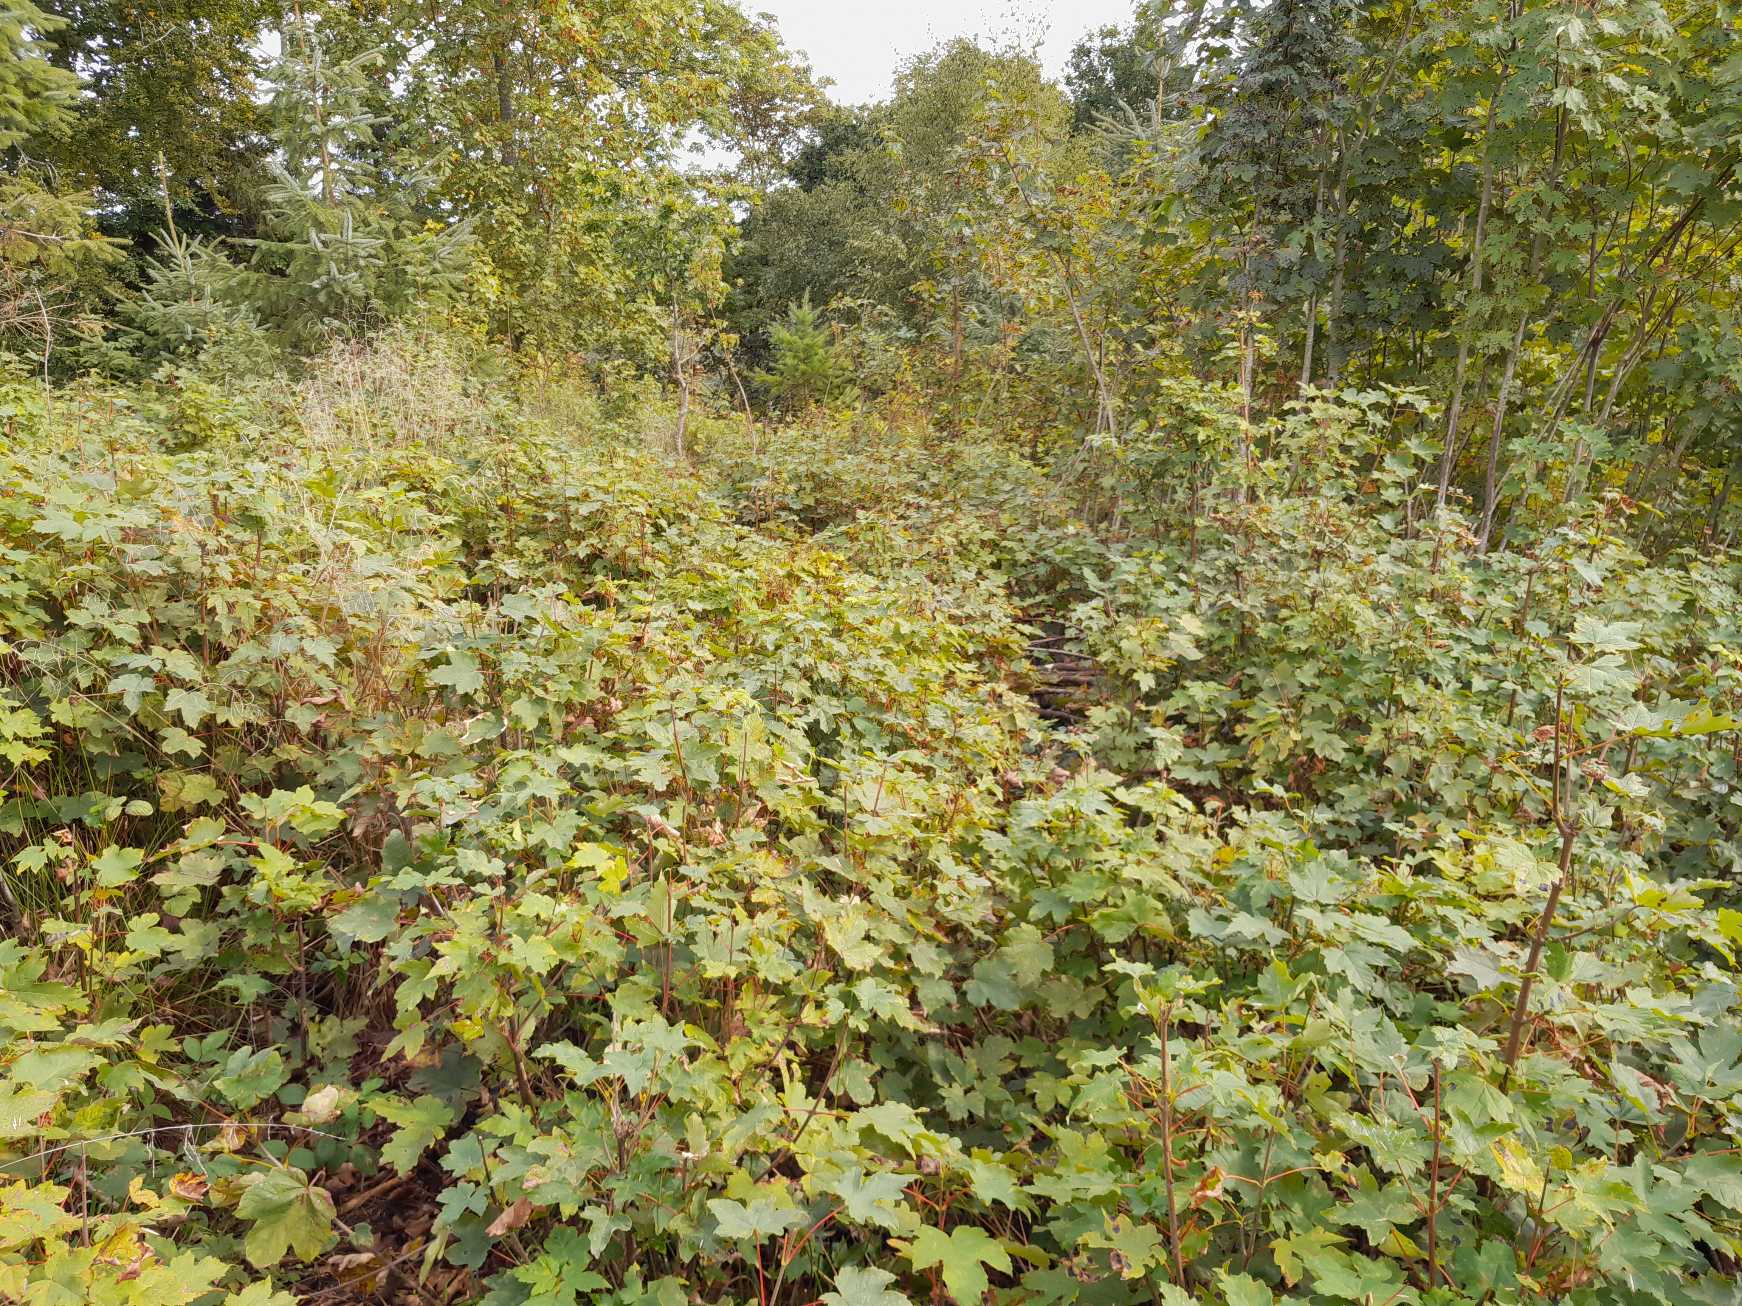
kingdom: Plantae
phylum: Tracheophyta
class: Magnoliopsida
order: Sapindales
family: Sapindaceae
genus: Acer
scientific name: Acer pseudoplatanus
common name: Ahorn
